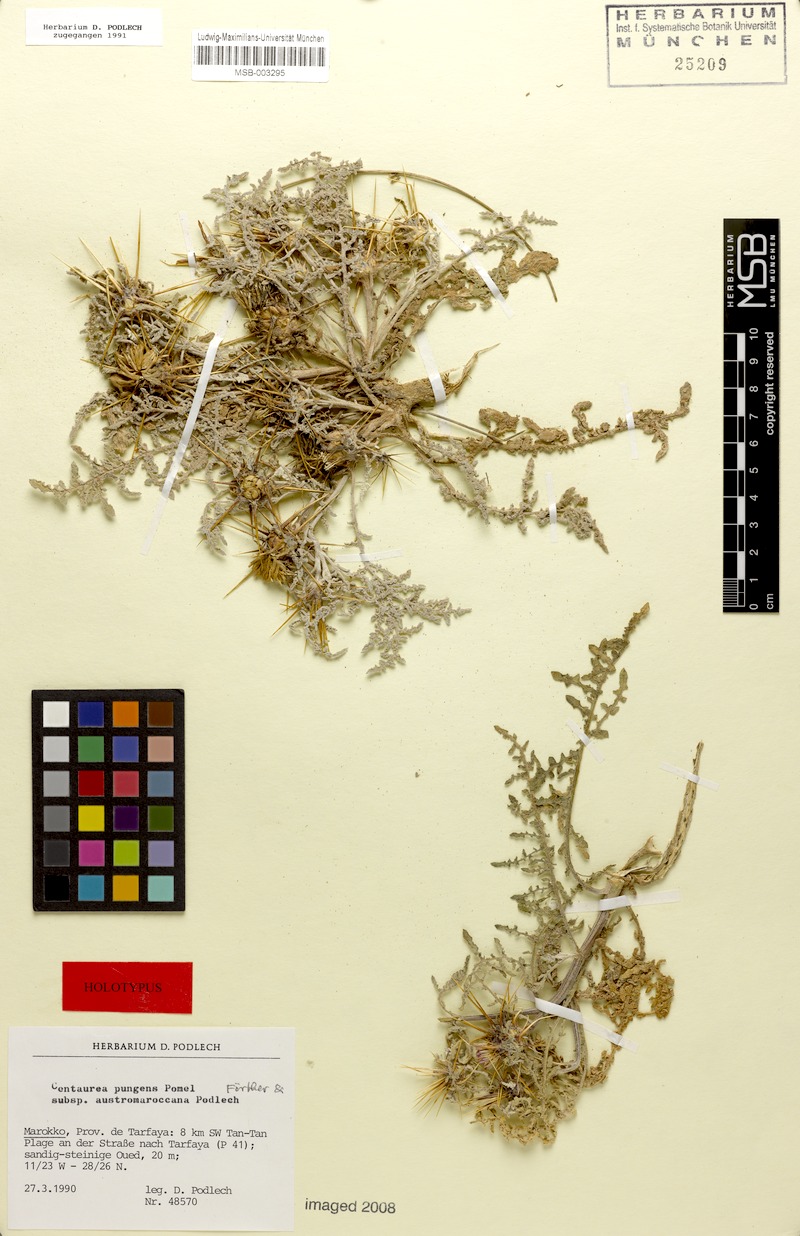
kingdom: Plantae
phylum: Tracheophyta
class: Magnoliopsida
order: Asterales
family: Asteraceae
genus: Centaurea
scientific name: Centaurea pungens
